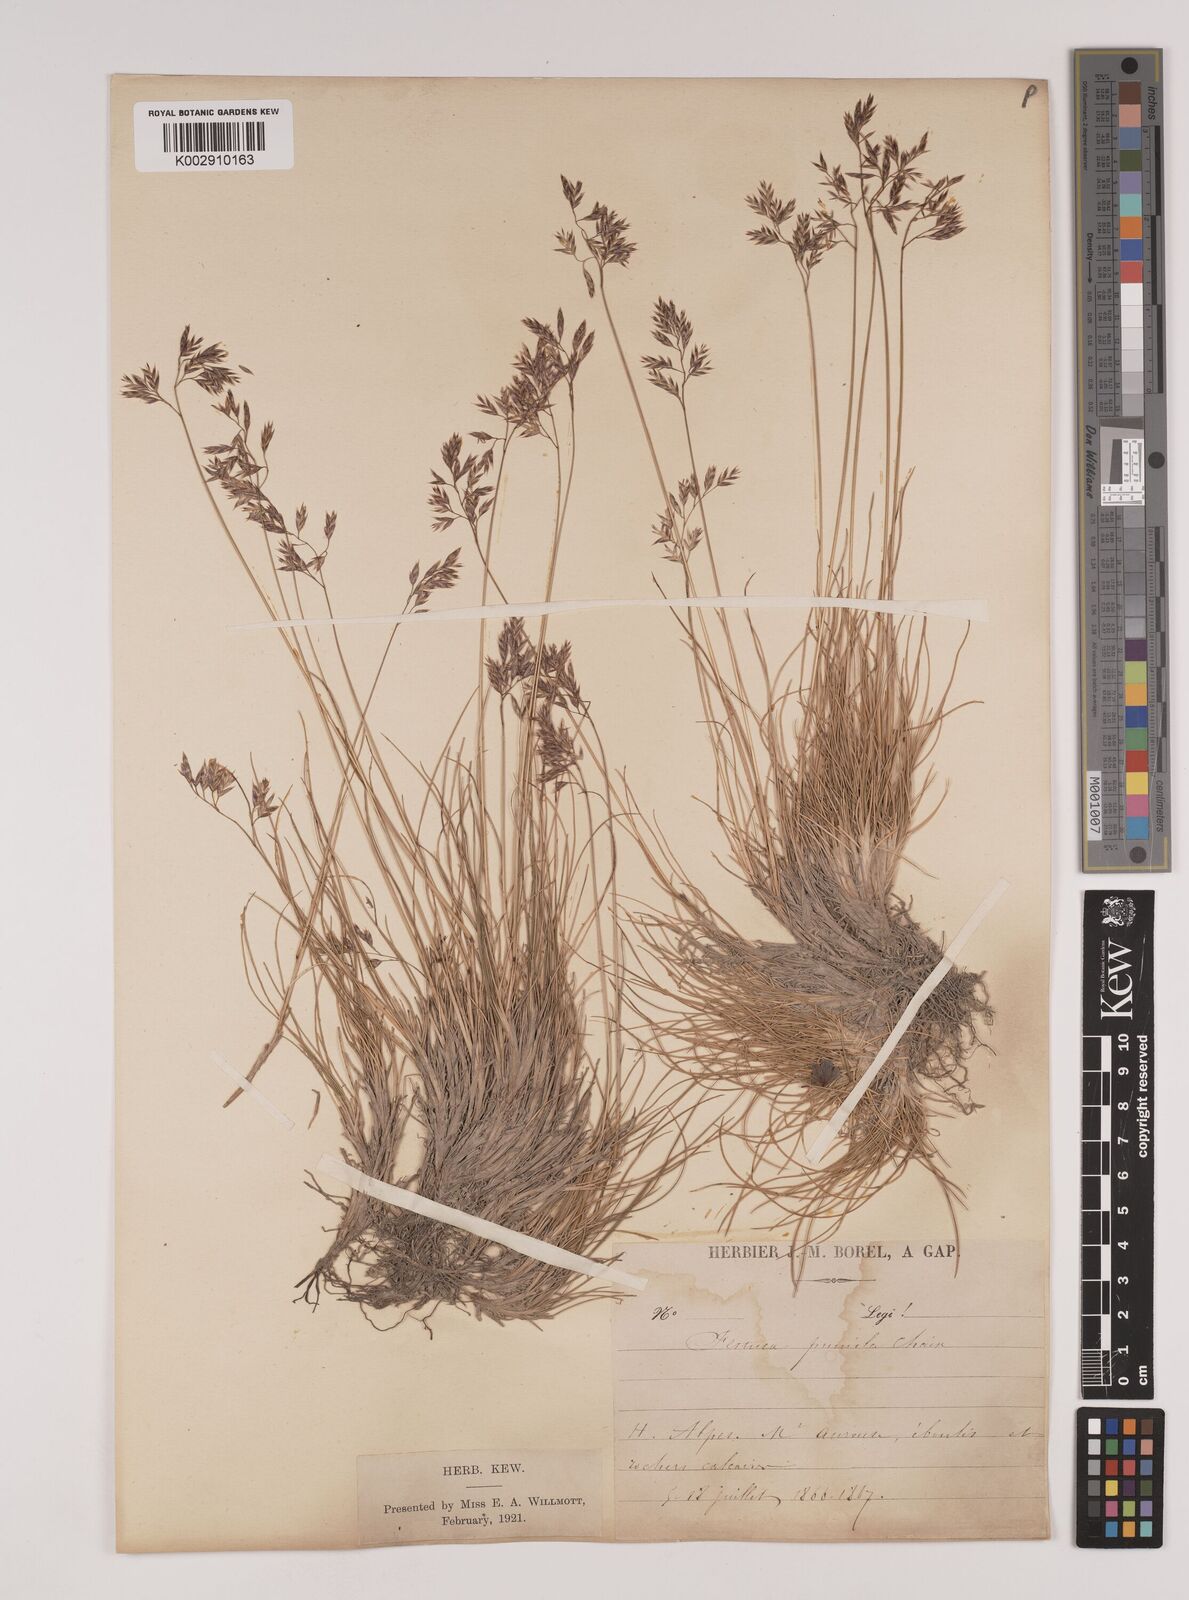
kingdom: Plantae
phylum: Tracheophyta
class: Liliopsida
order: Poales
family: Poaceae
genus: Festuca
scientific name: Festuca
